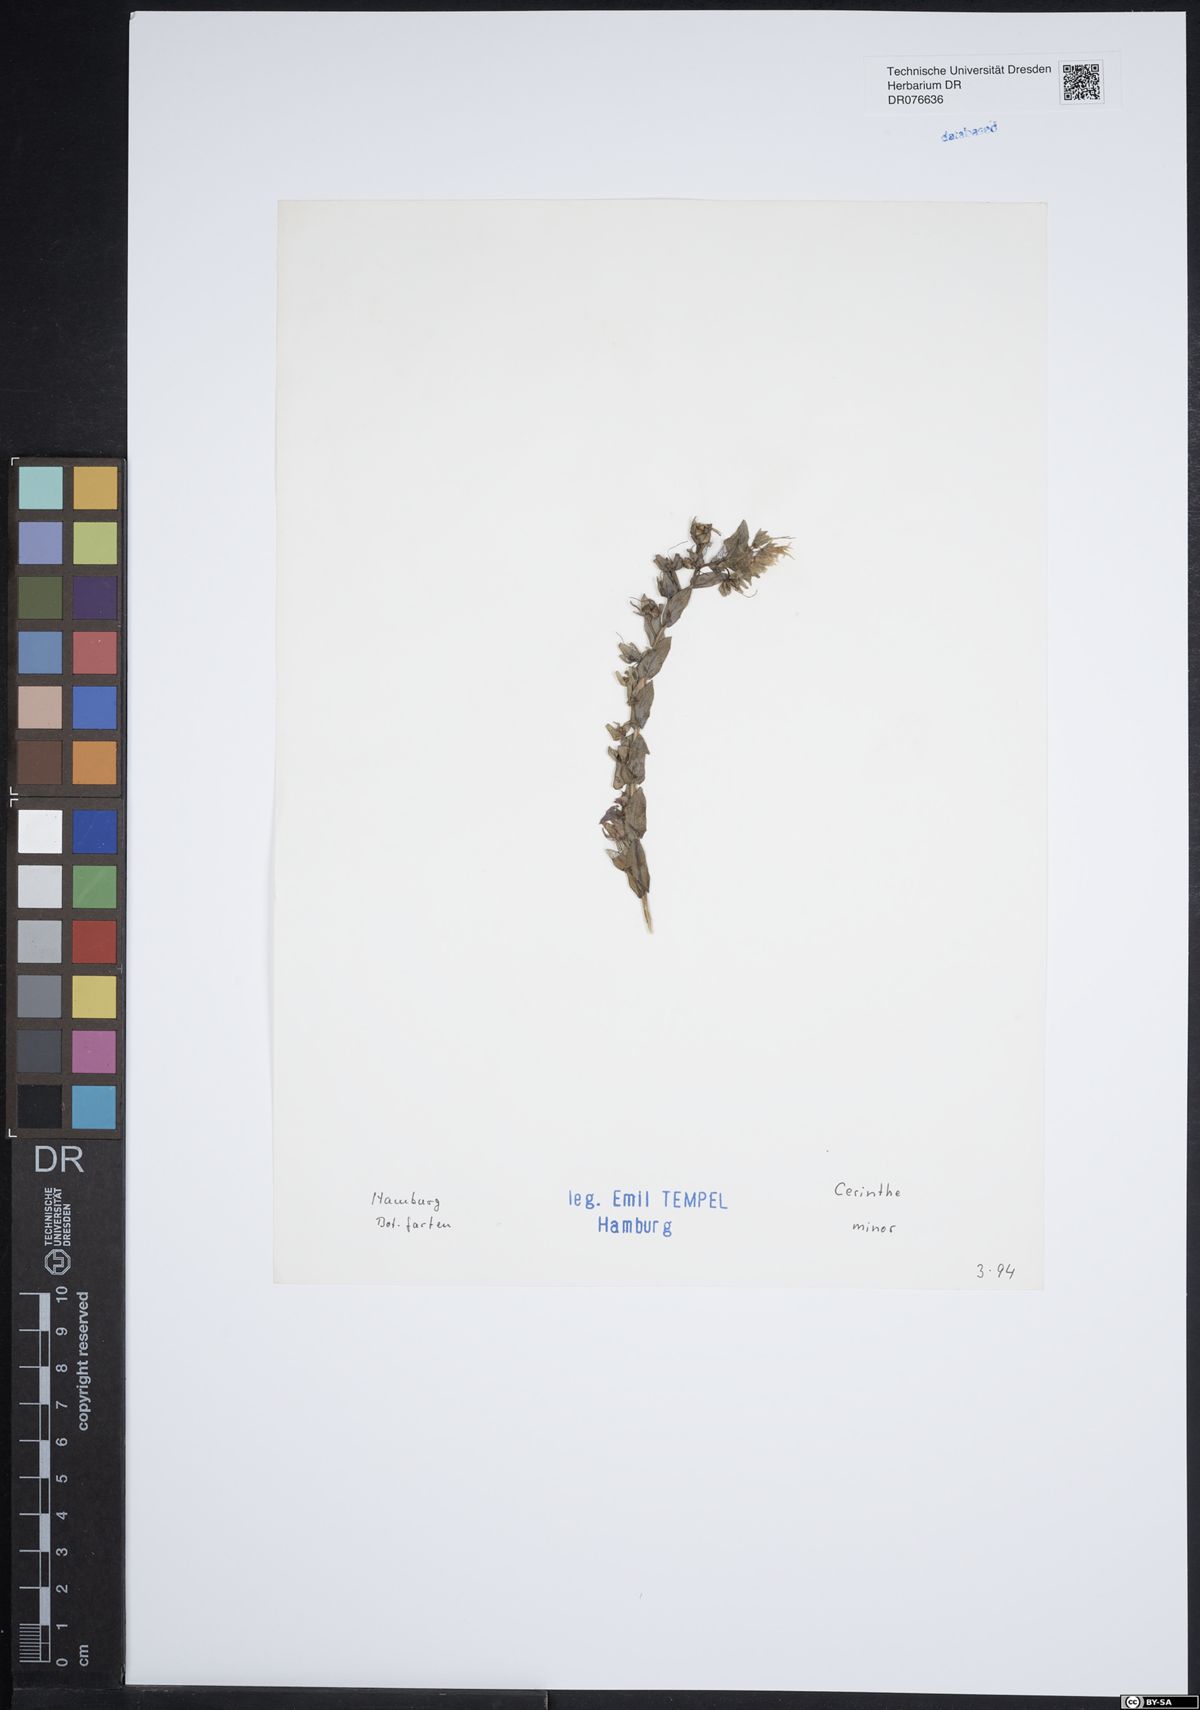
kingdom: Plantae
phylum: Tracheophyta
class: Magnoliopsida
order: Boraginales
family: Boraginaceae
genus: Cerinthe
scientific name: Cerinthe minor
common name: Lesser honeywort
